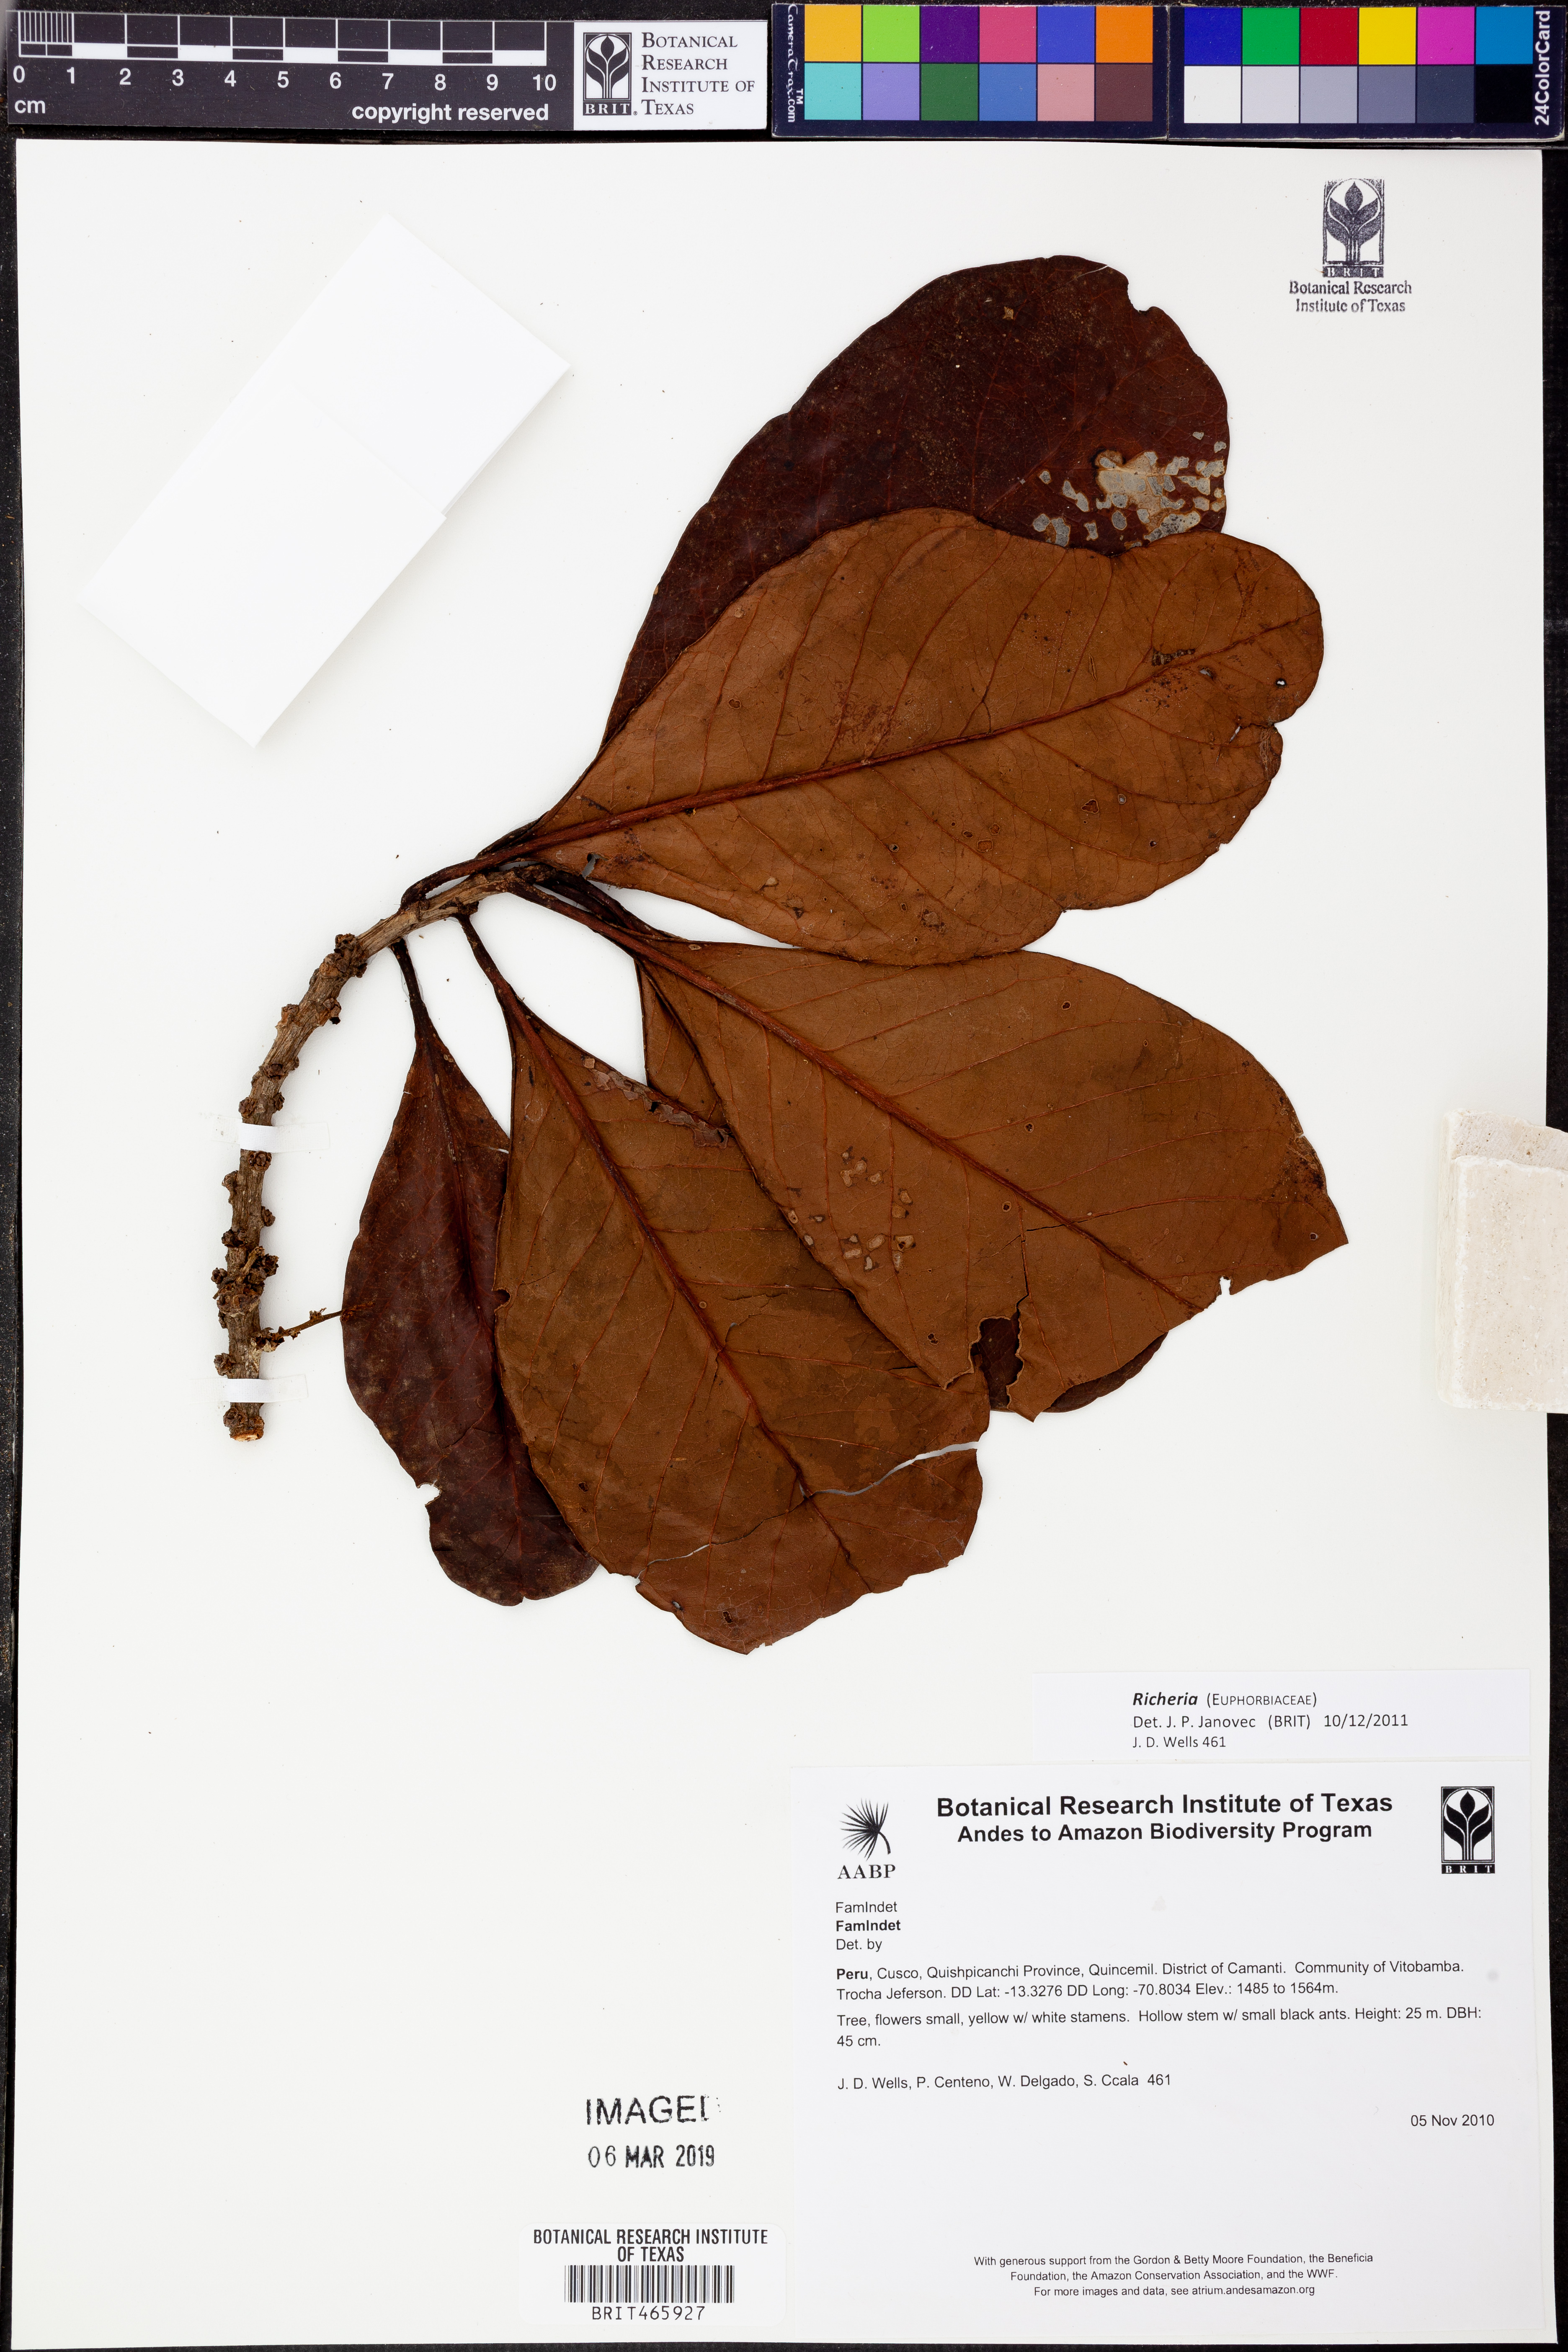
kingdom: Plantae
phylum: Tracheophyta
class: Magnoliopsida
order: Malpighiales
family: Phyllanthaceae
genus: Richeria
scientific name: Richeria
